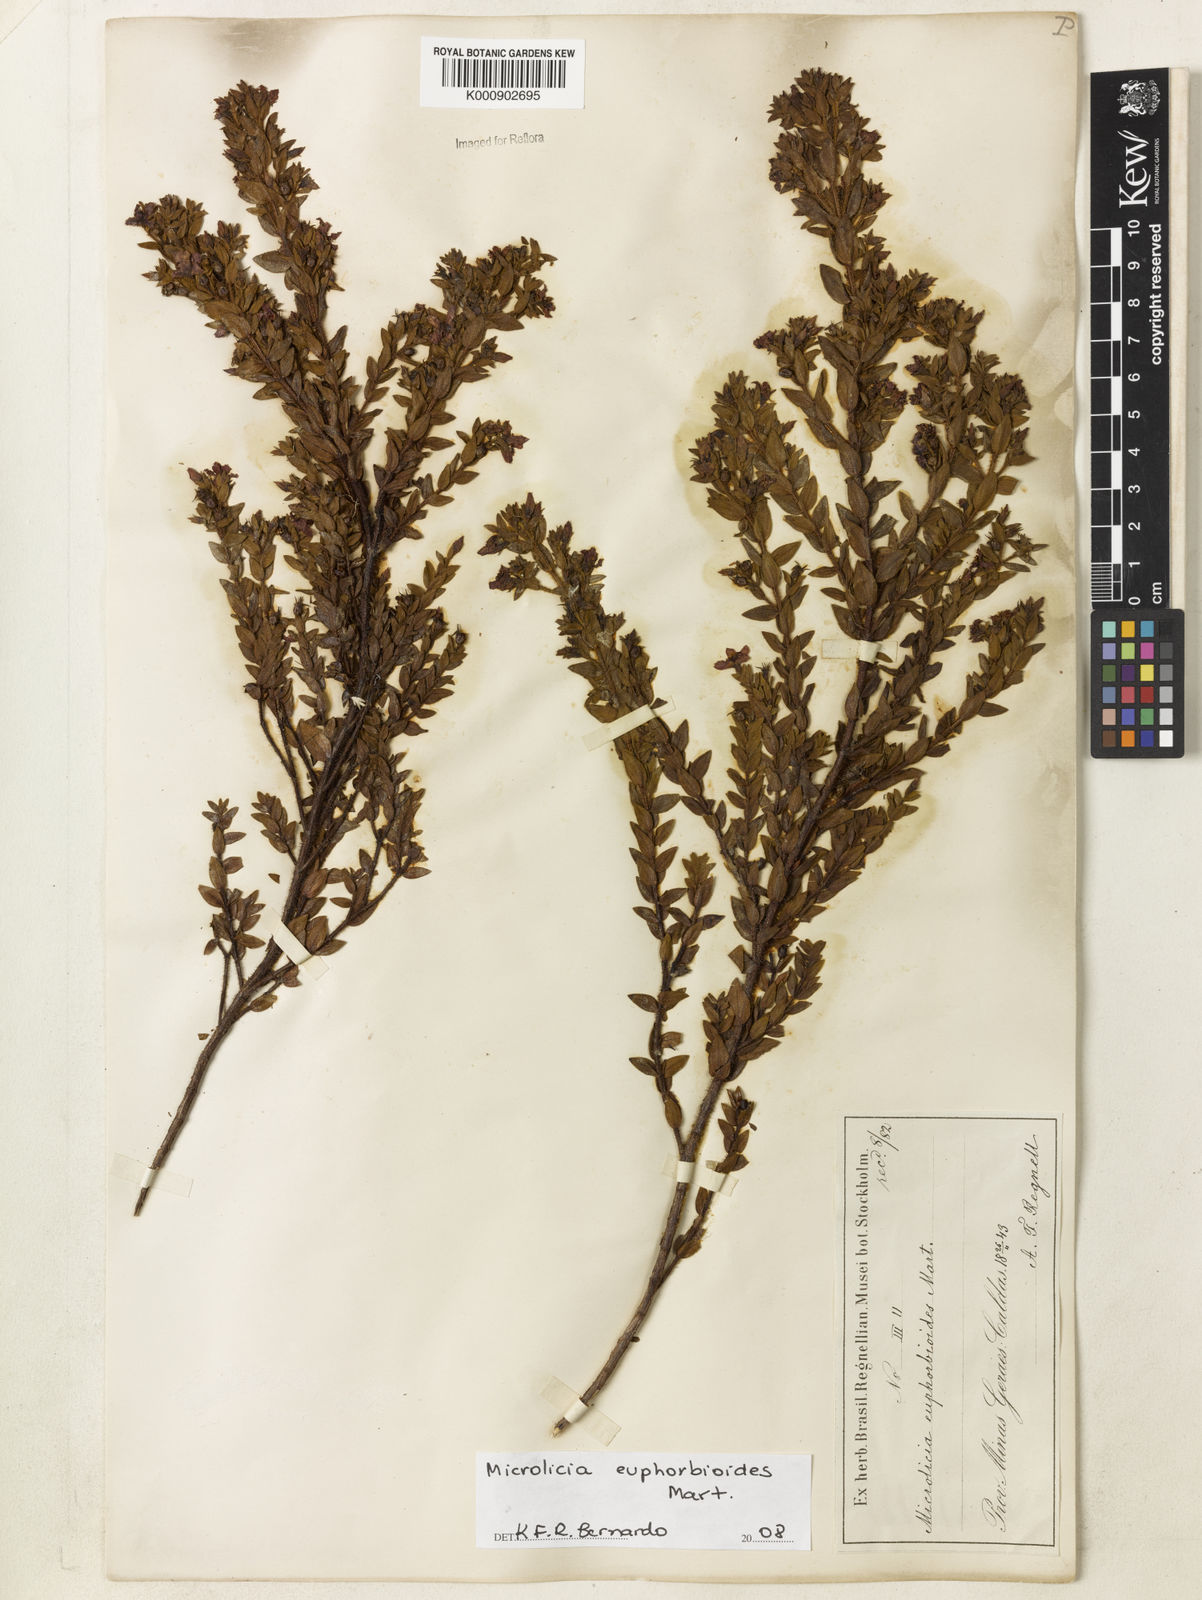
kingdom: Plantae
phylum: Tracheophyta
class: Magnoliopsida
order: Myrtales
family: Melastomataceae
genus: Microlicia
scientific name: Microlicia euphorbioides
